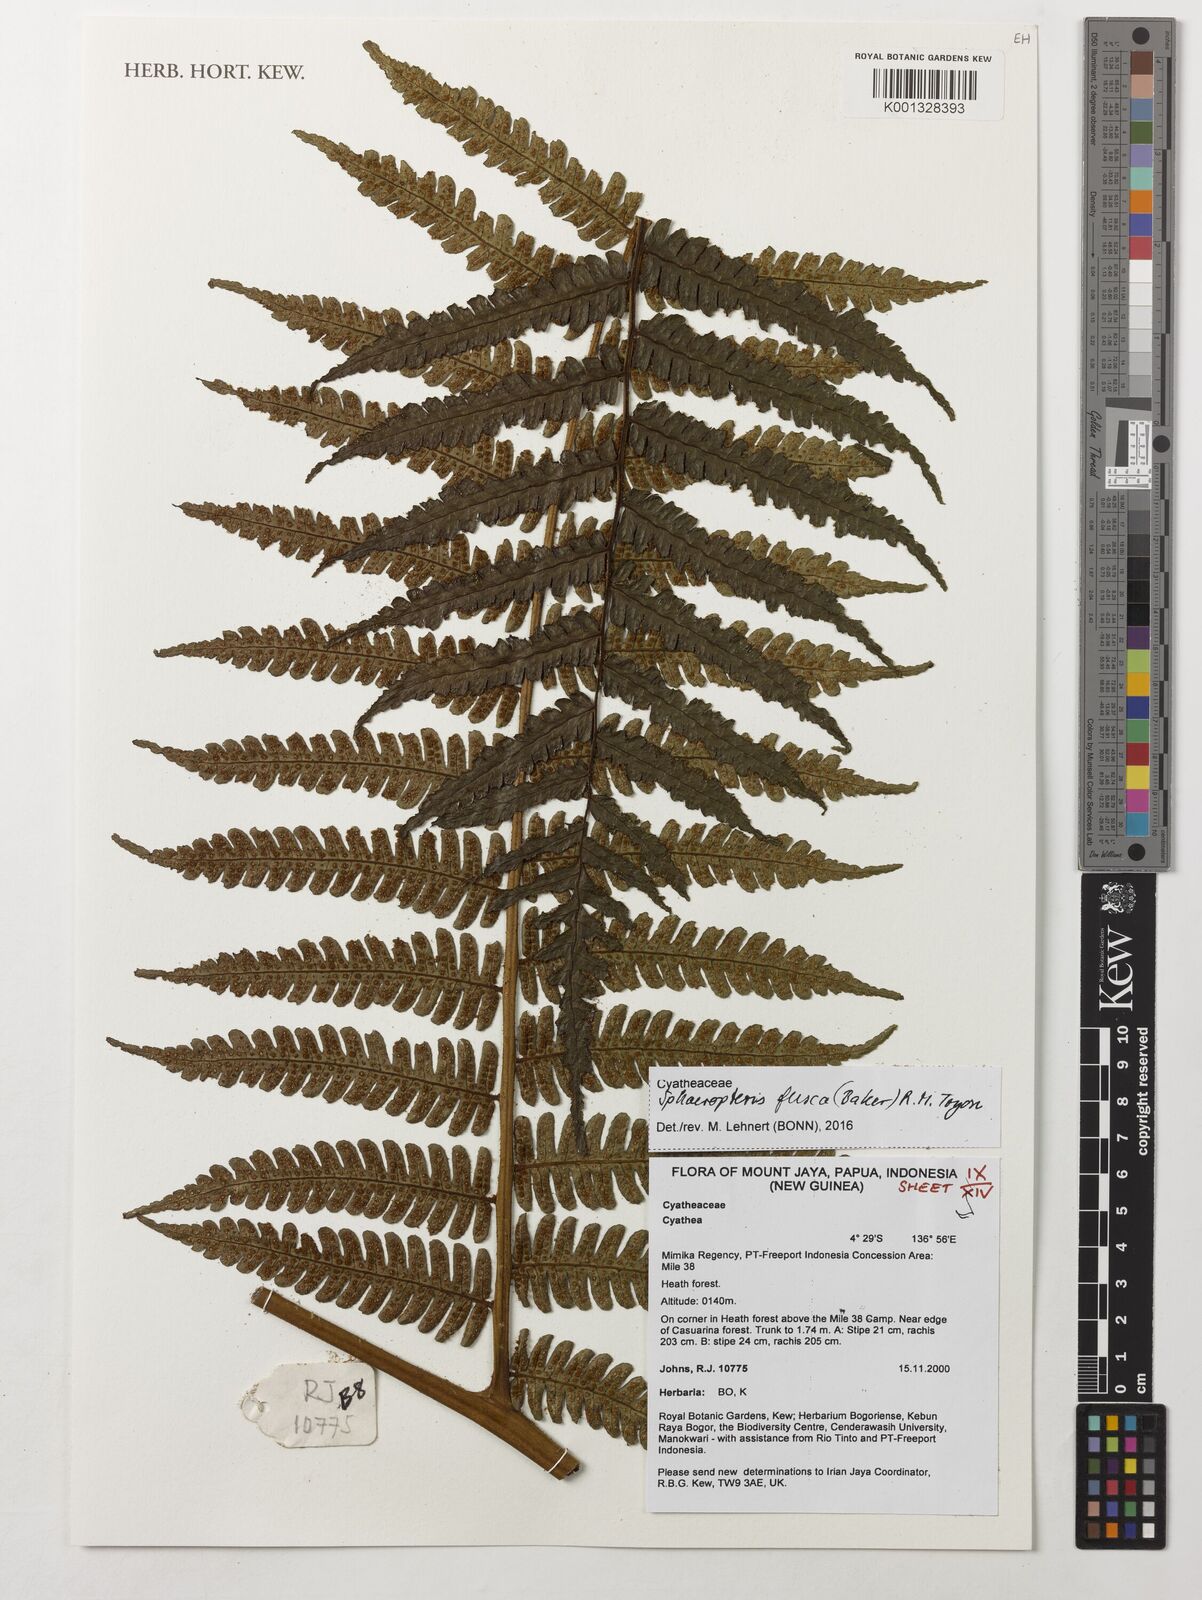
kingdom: Plantae
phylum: Tracheophyta
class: Polypodiopsida
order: Cyatheales
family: Cyatheaceae
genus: Sphaeropteris
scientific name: Sphaeropteris fusca
